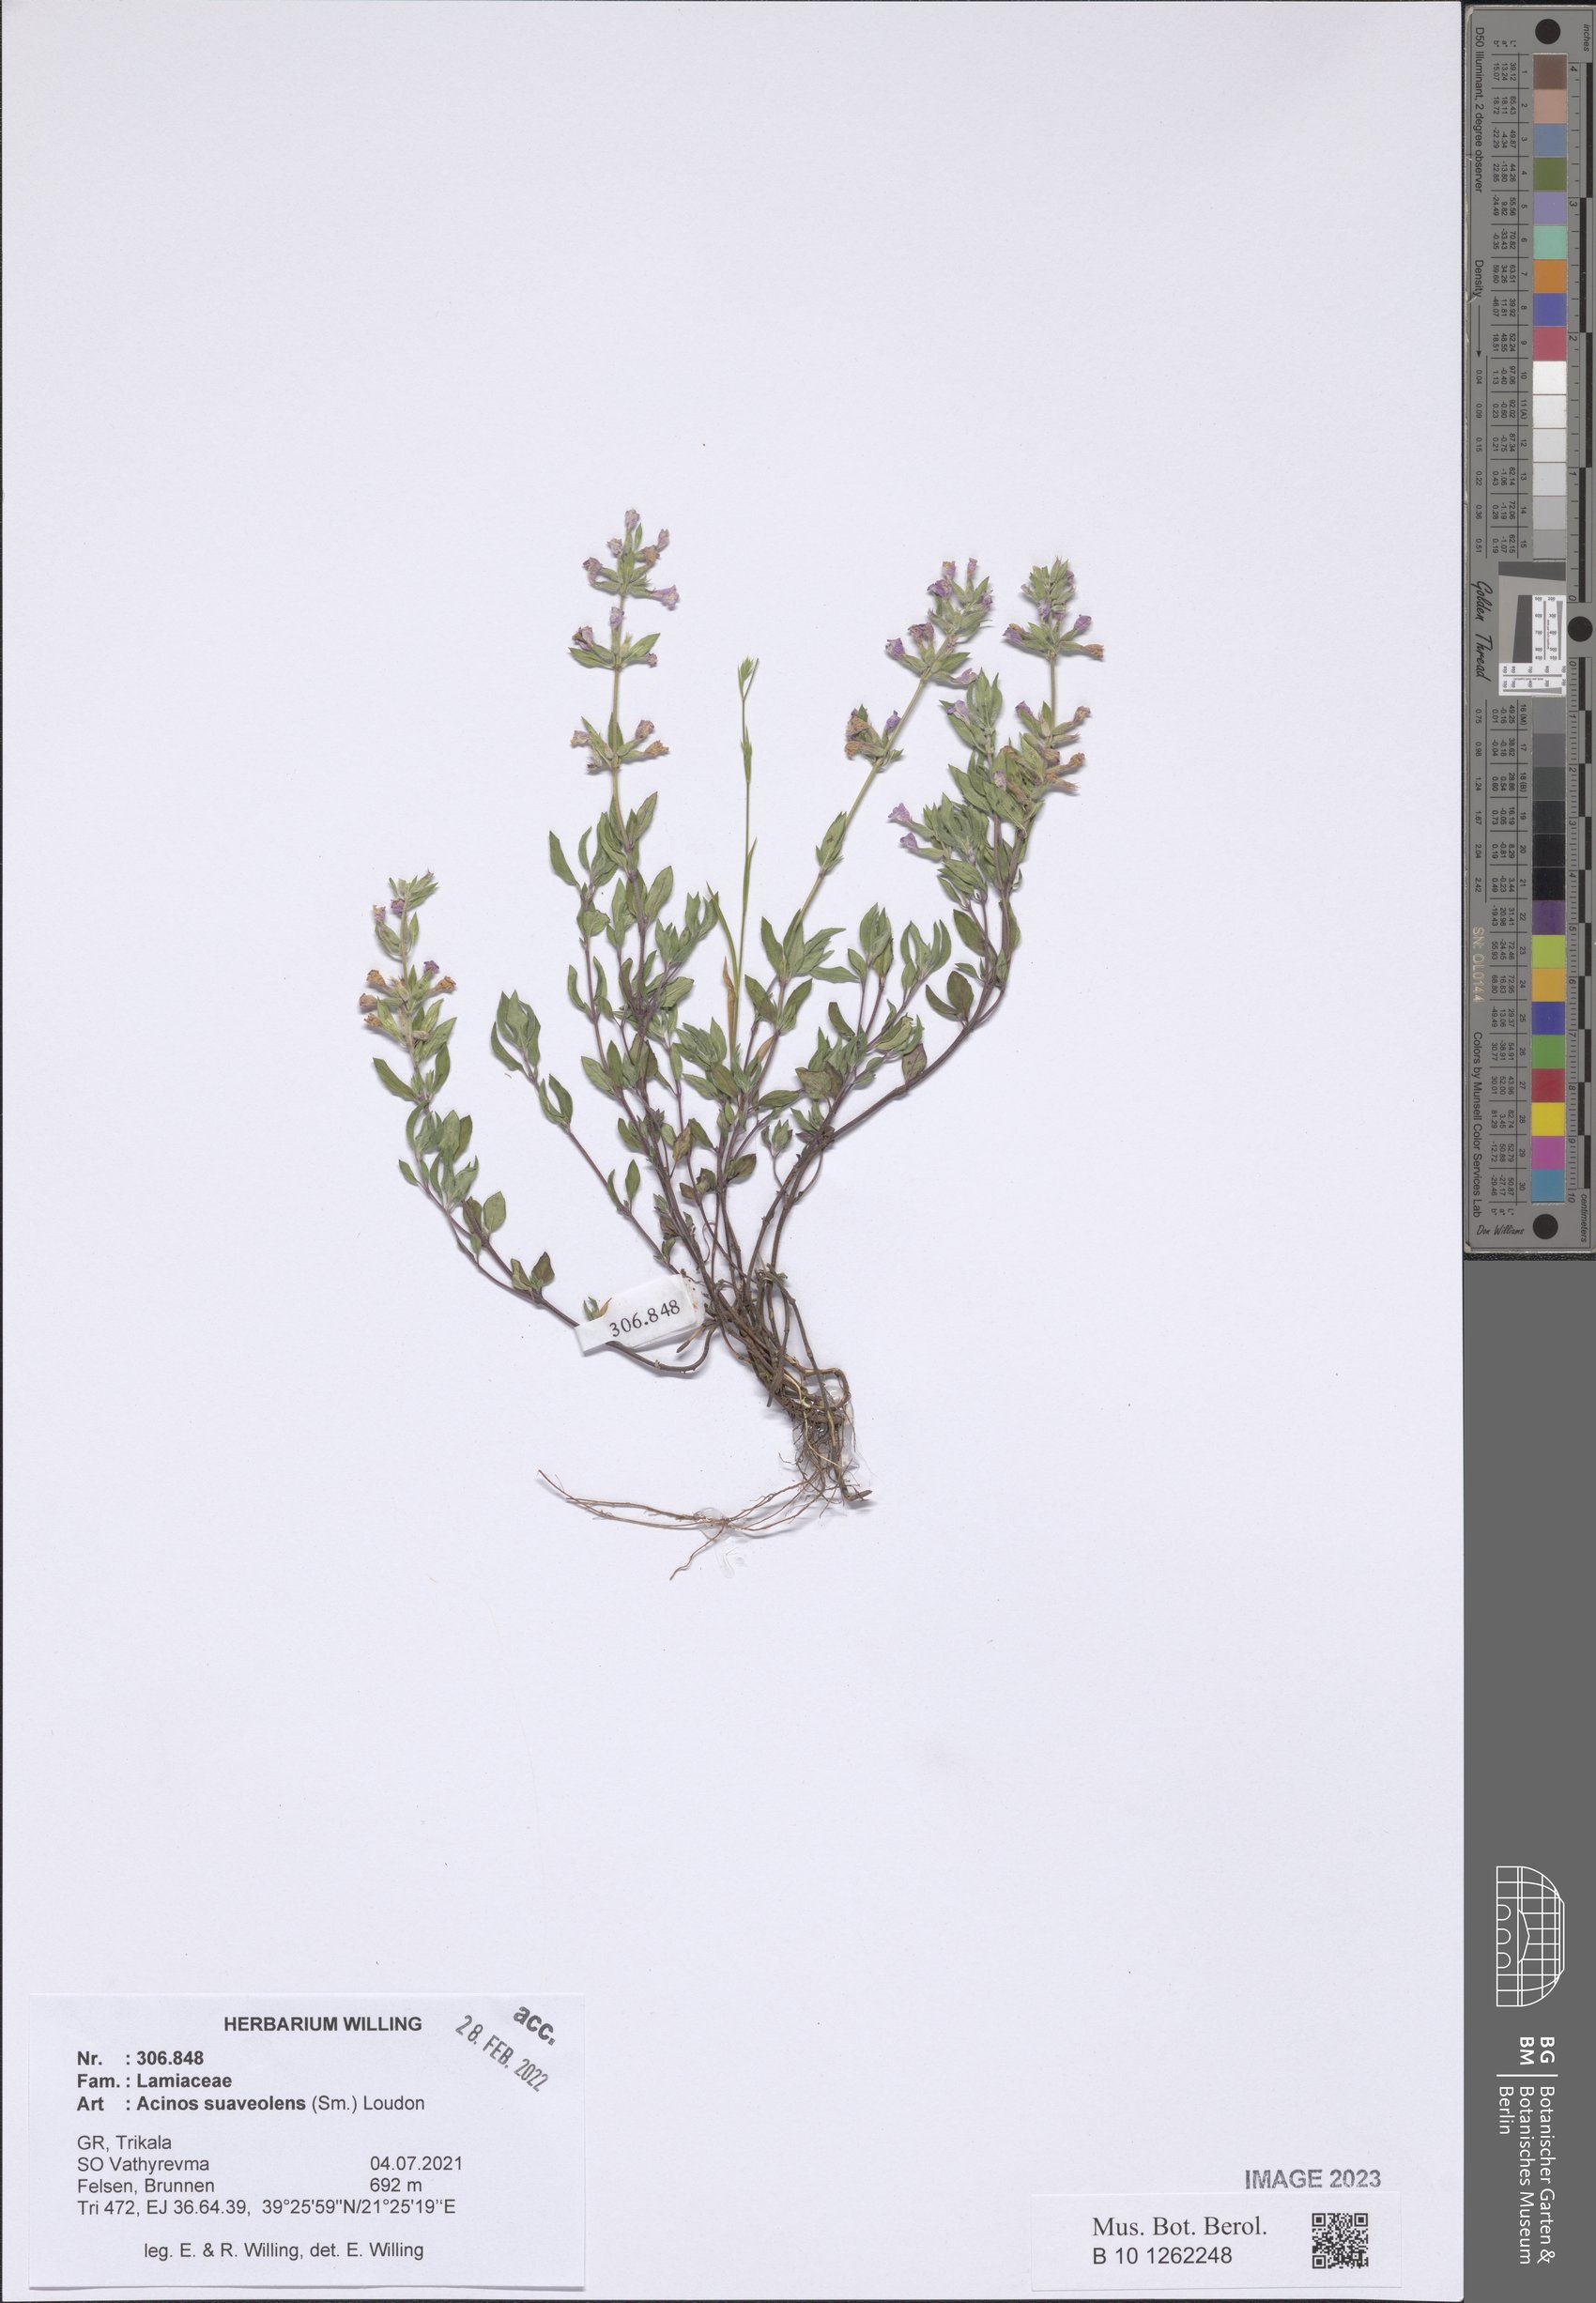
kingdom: Plantae
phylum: Tracheophyta
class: Magnoliopsida
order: Lamiales
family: Lamiaceae
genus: Clinopodium
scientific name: Clinopodium suaveolens
